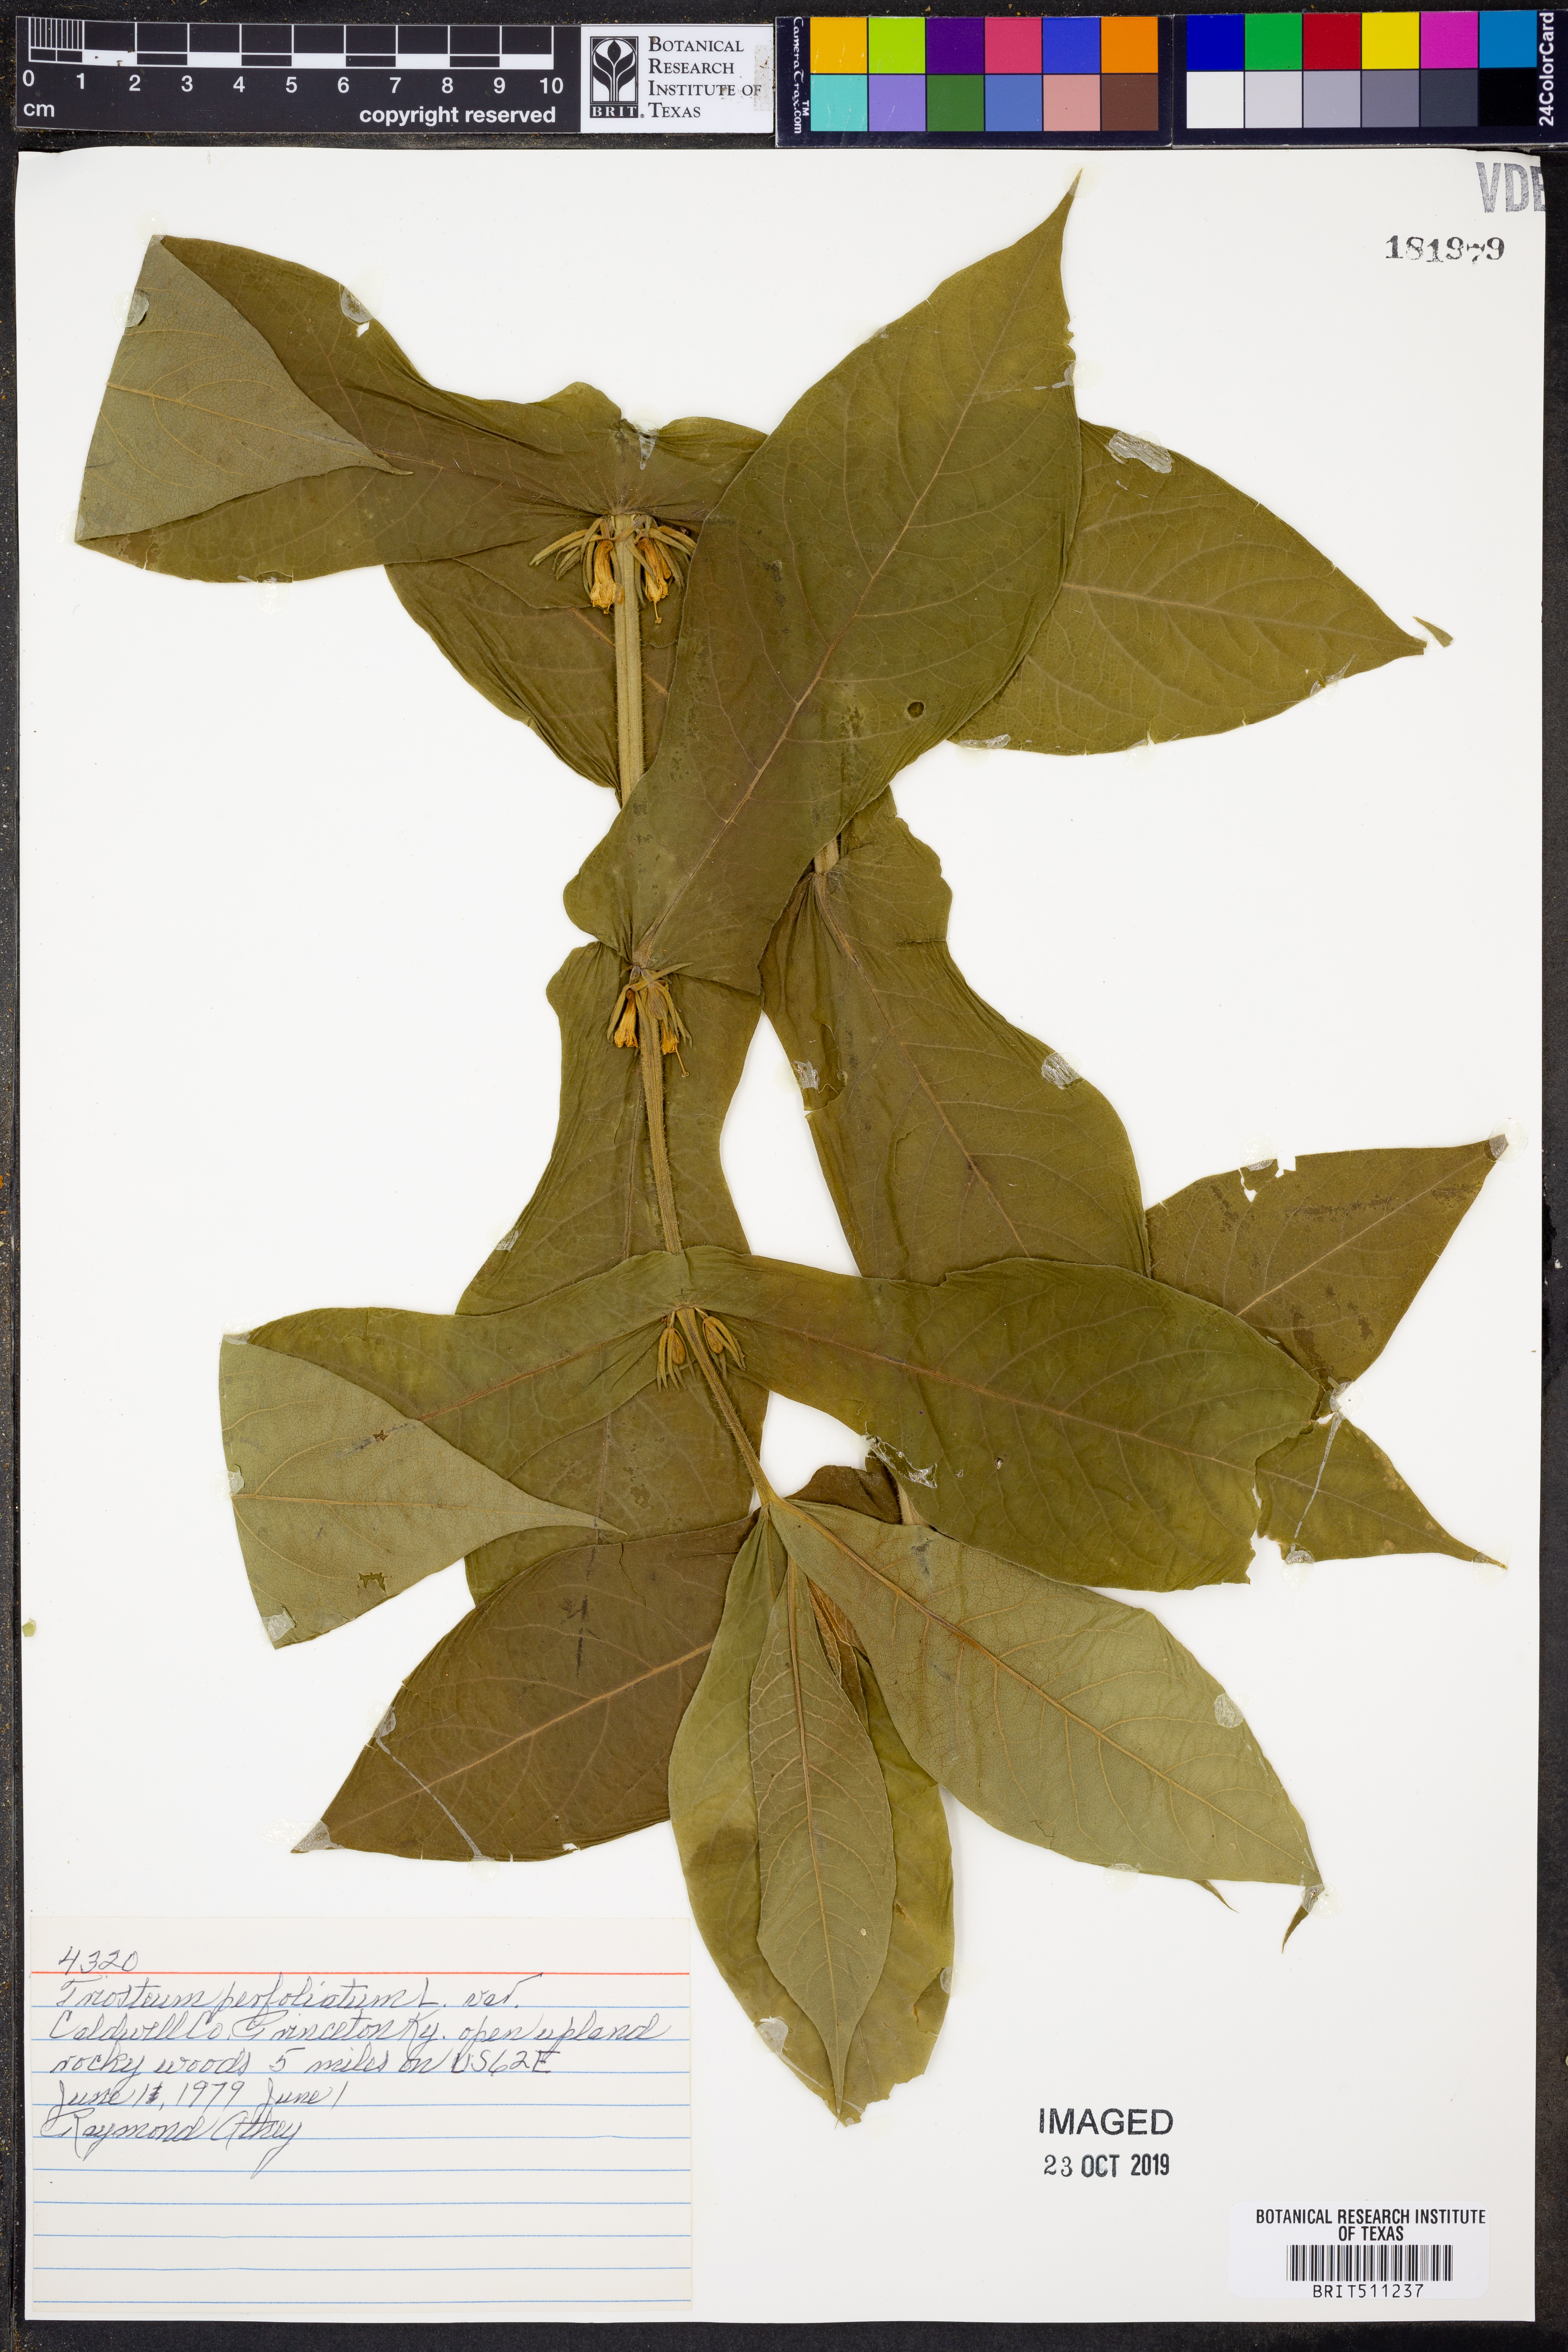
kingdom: Plantae
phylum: Tracheophyta
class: Magnoliopsida
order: Dipsacales
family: Caprifoliaceae
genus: Triosteum
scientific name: Triosteum perfoliatum
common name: Common horse-gentian
